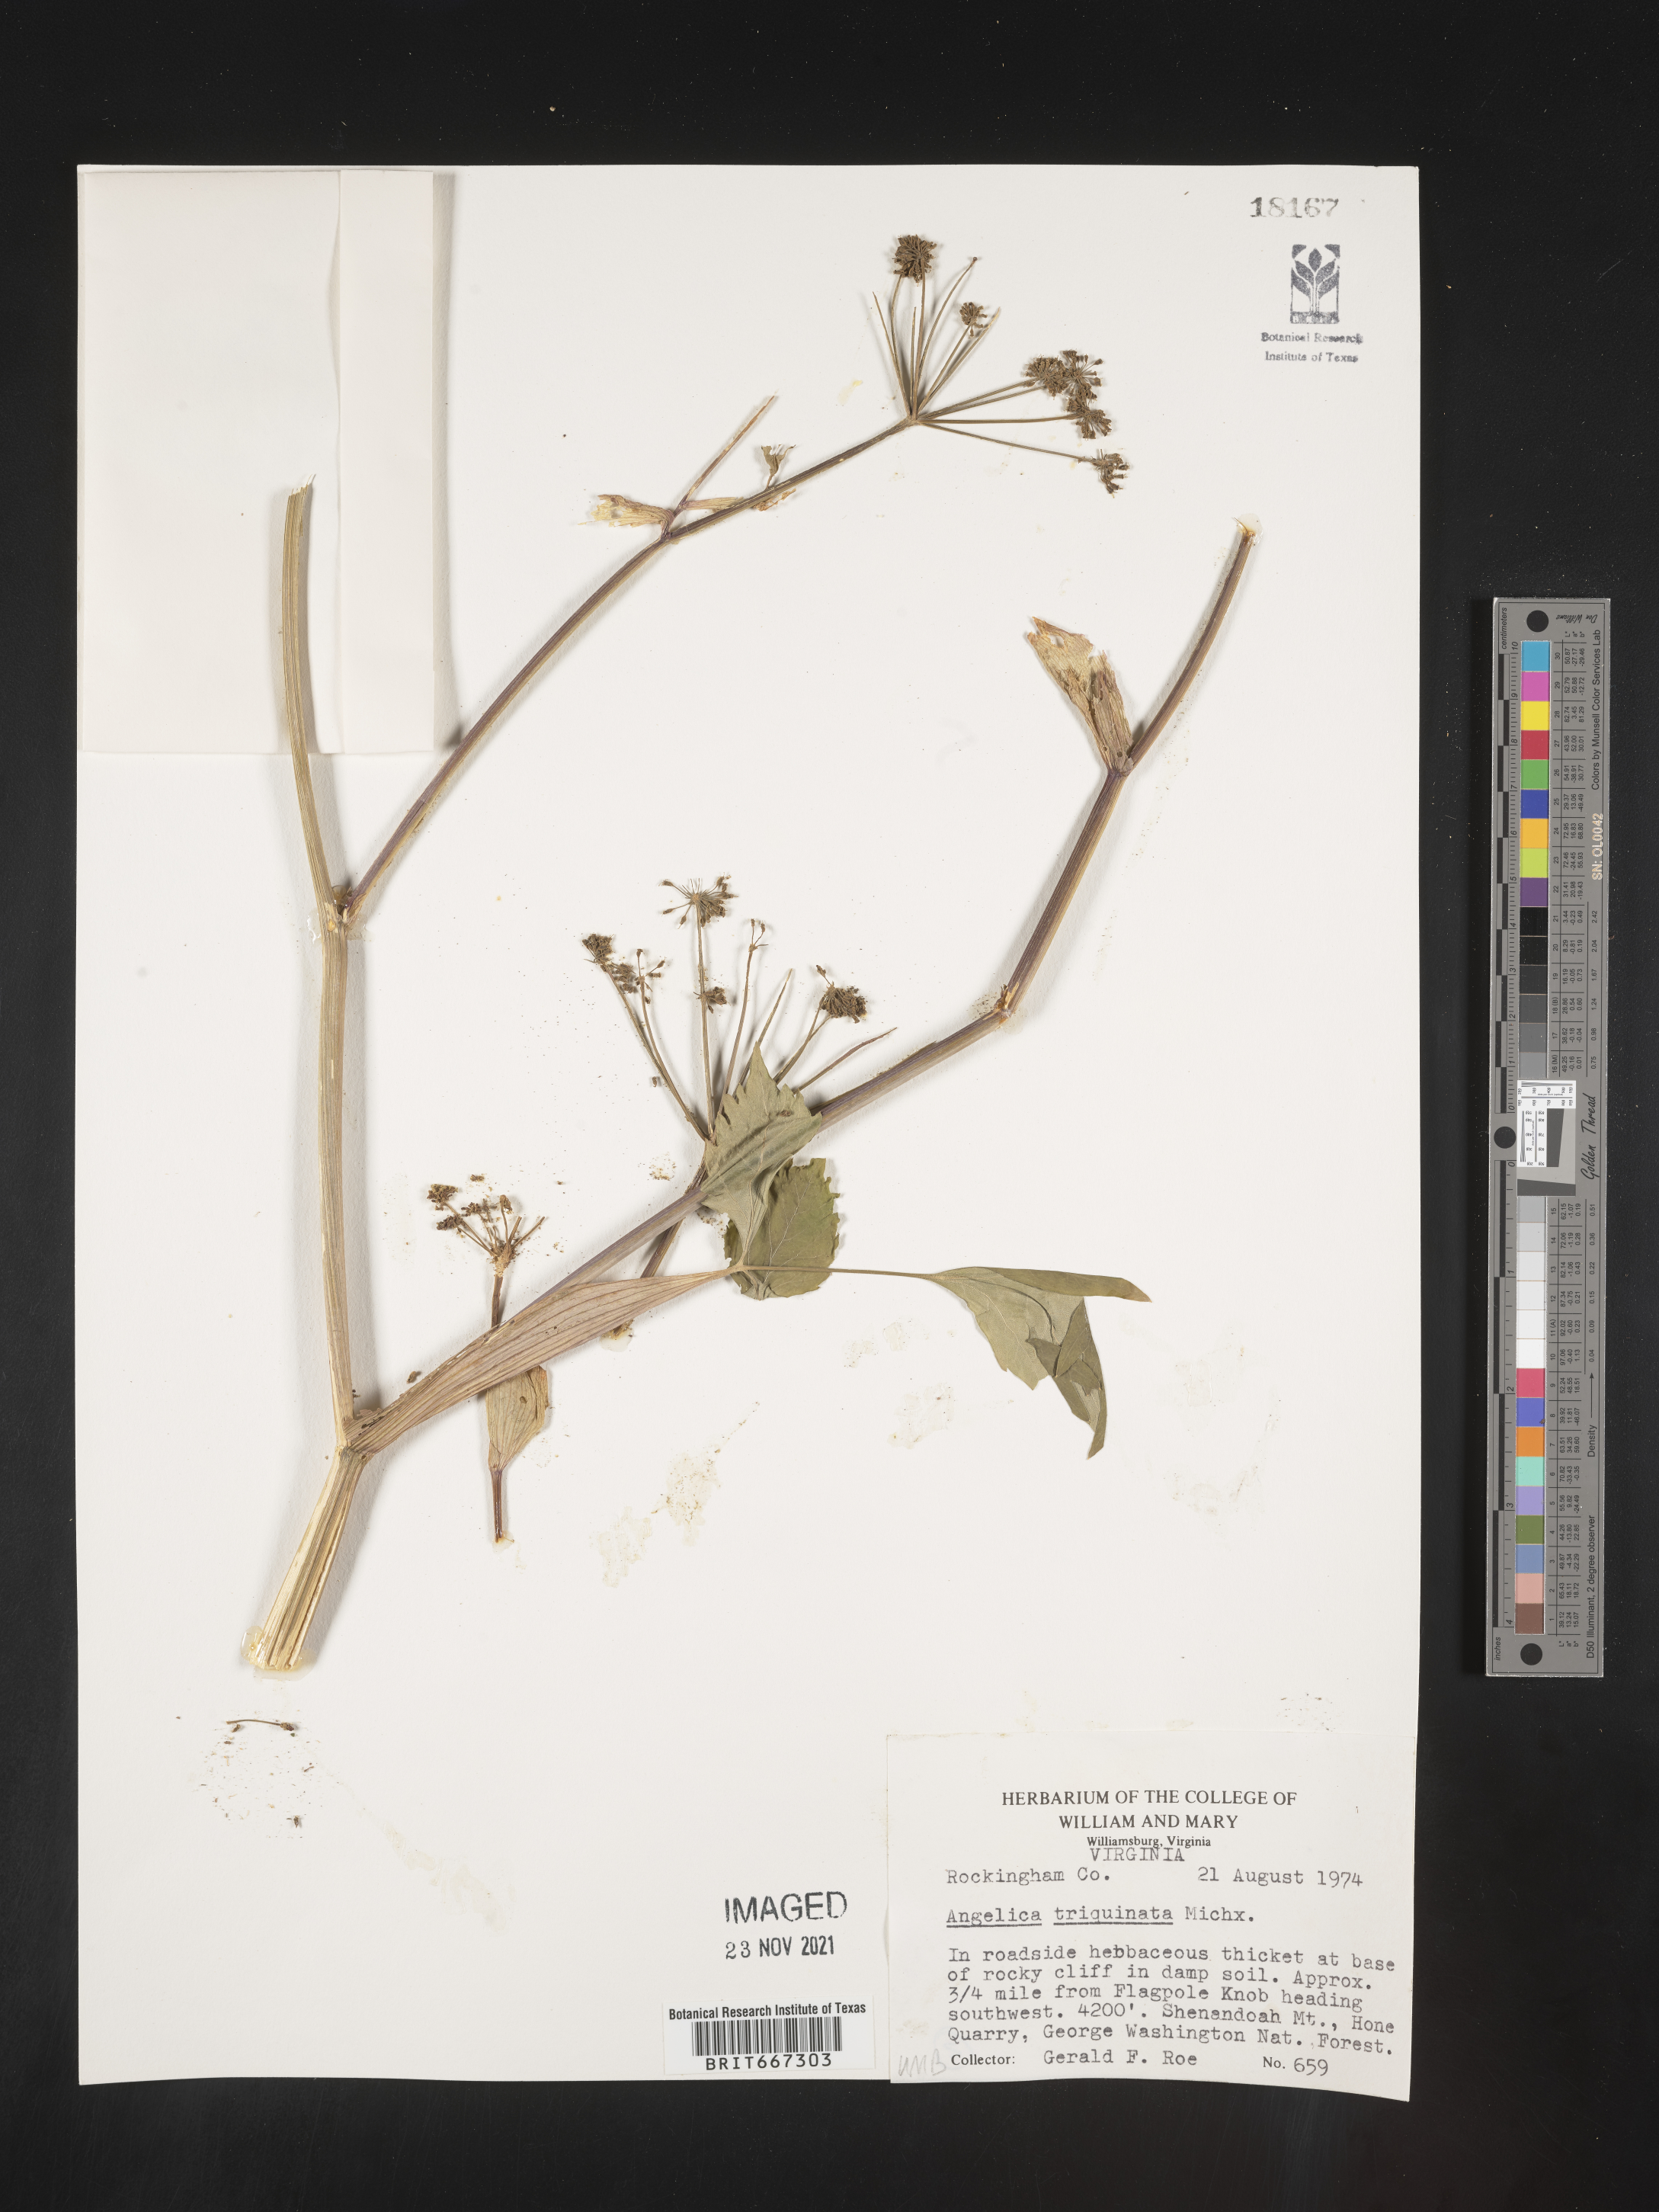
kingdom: Plantae
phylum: Tracheophyta
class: Magnoliopsida
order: Apiales
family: Apiaceae
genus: Angelica
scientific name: Angelica triquinata
